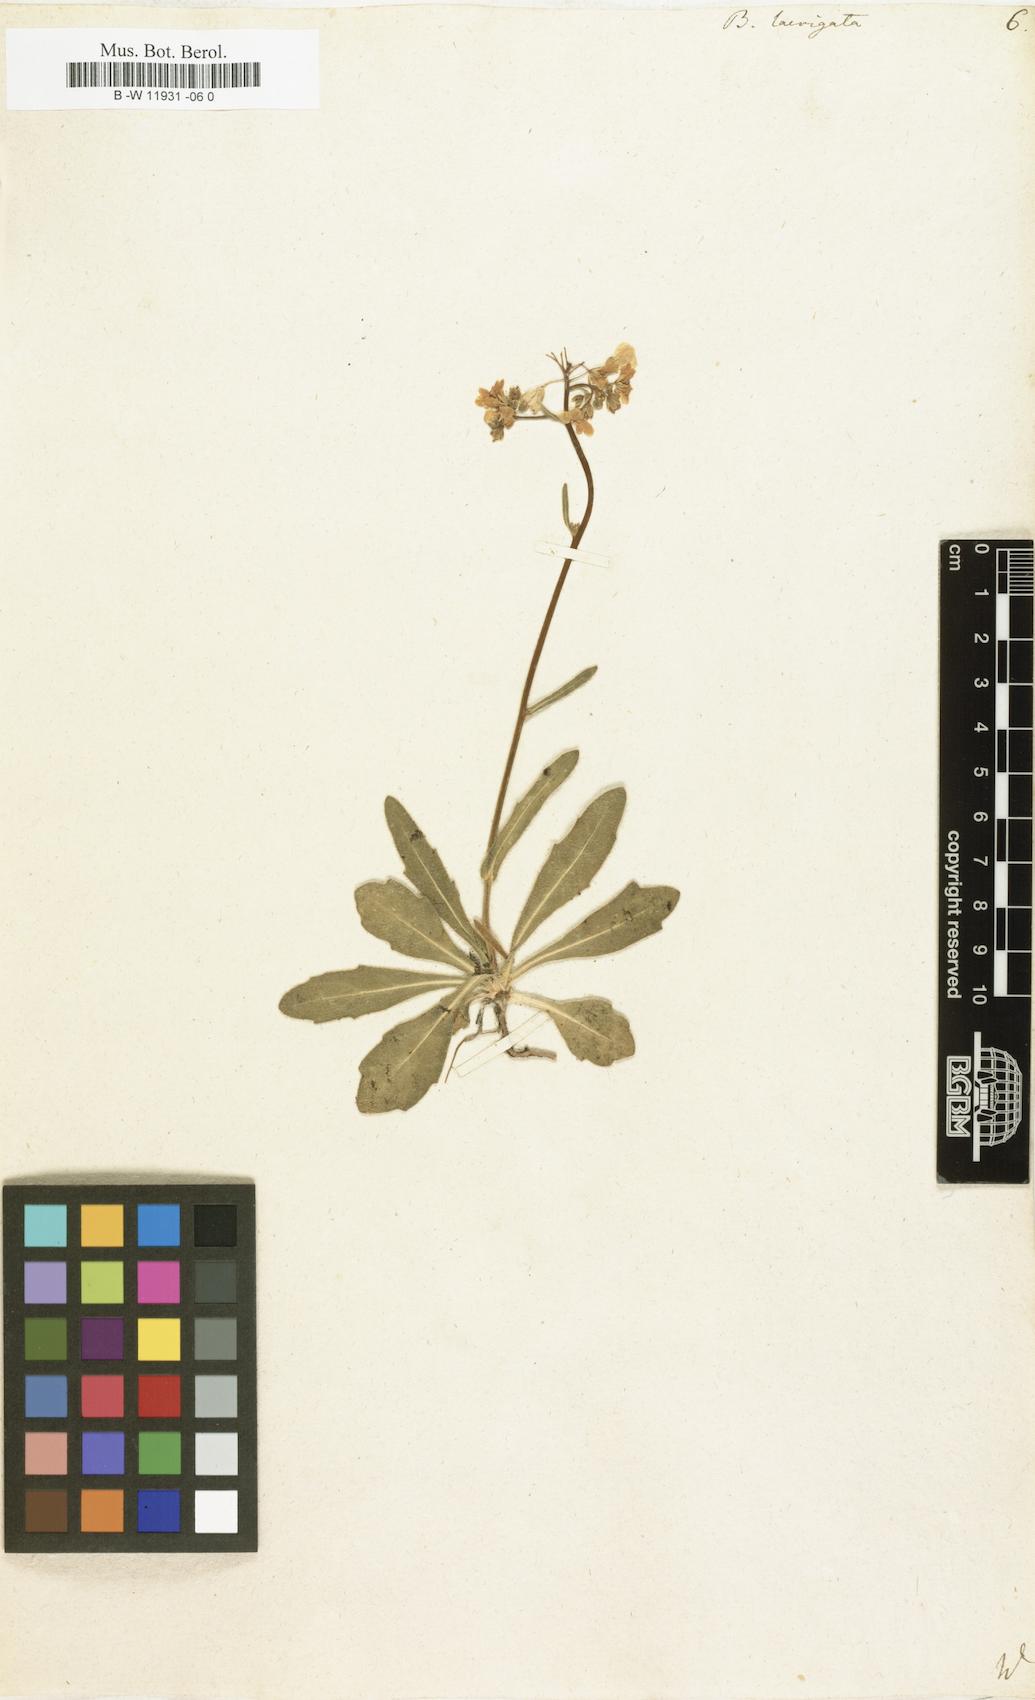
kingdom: Plantae
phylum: Tracheophyta
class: Magnoliopsida
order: Brassicales
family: Brassicaceae
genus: Biscutella
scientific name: Biscutella laevigata
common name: Buckler mustard
